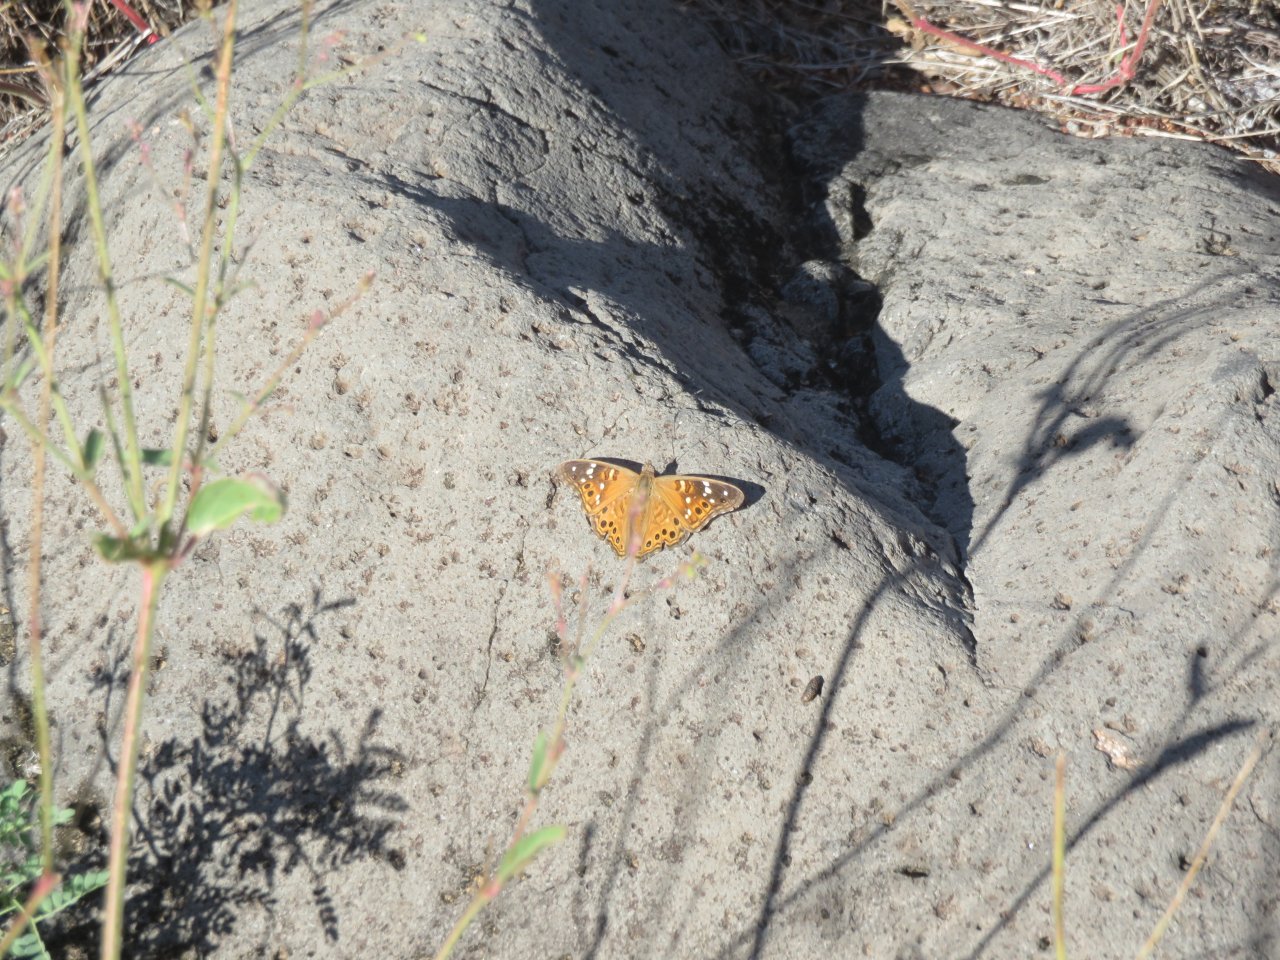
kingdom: Animalia
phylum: Arthropoda
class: Insecta
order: Lepidoptera
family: Nymphalidae
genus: Asterocampa
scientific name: Asterocampa leilia
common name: Empress Leilia
